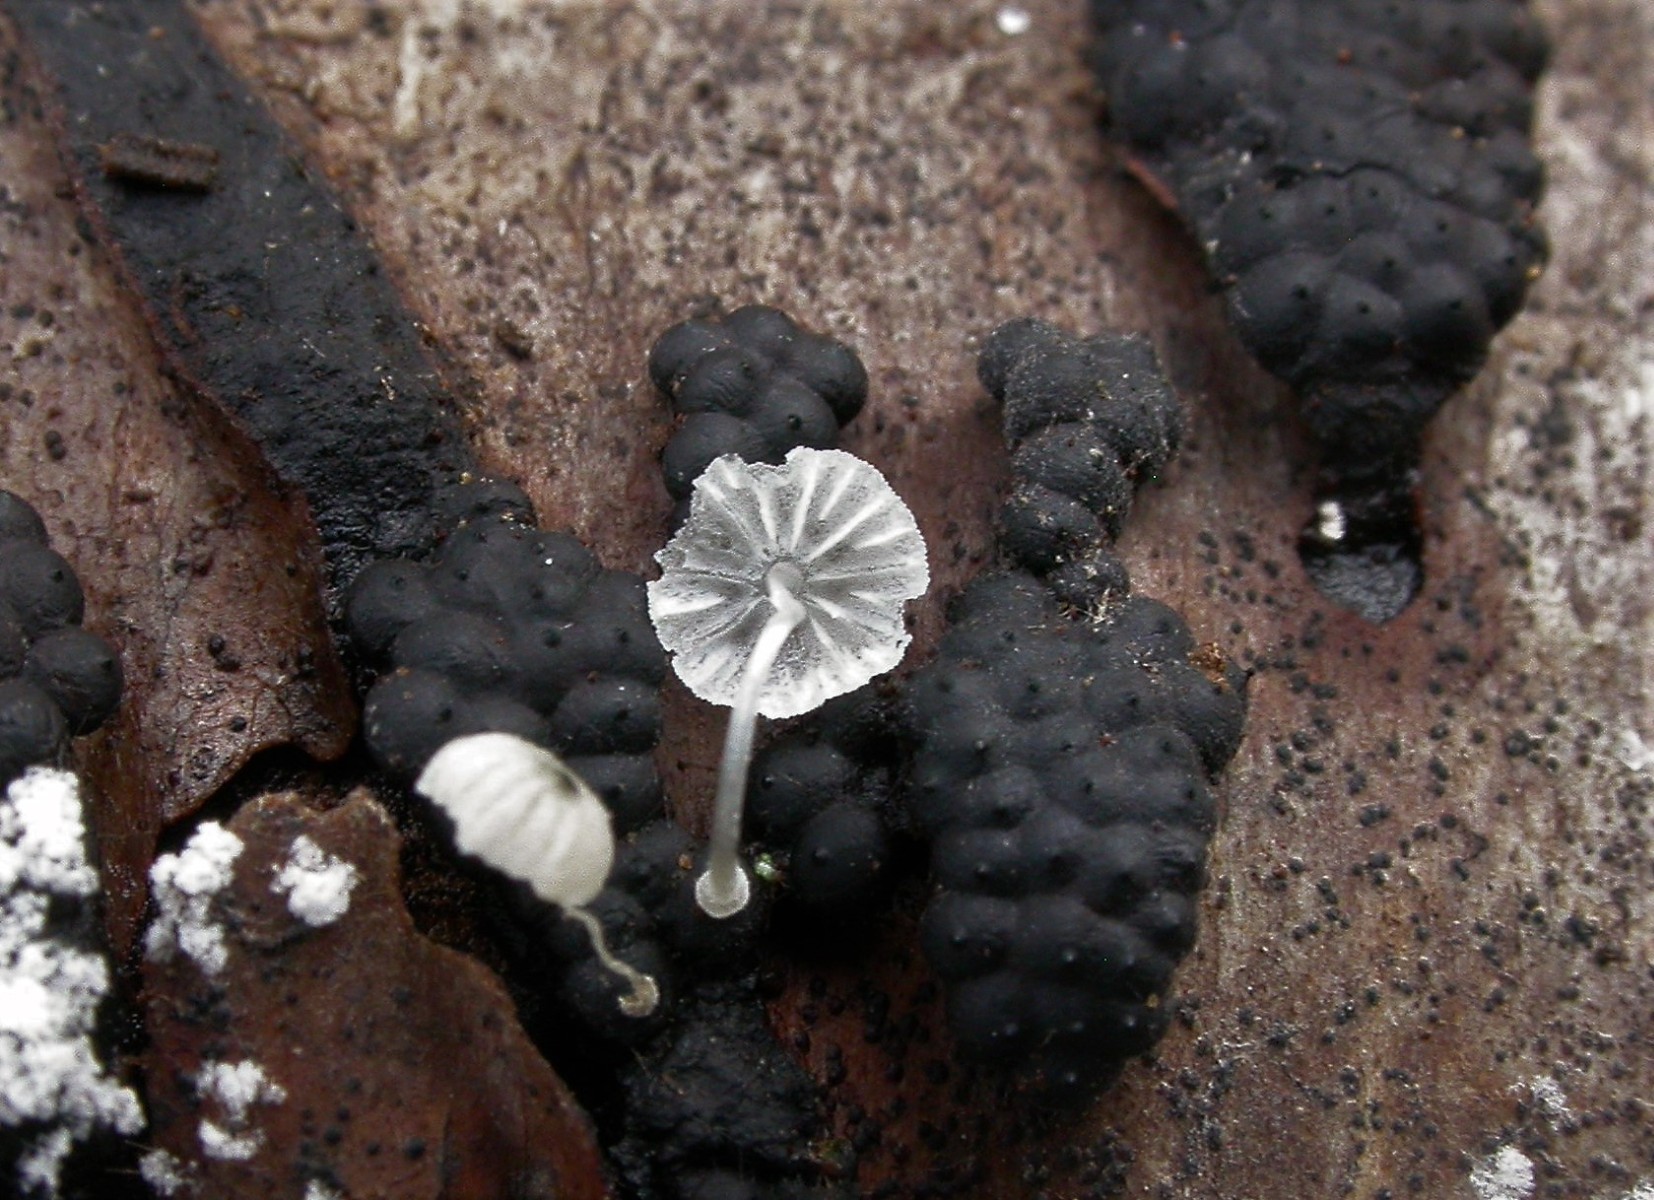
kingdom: Fungi
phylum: Basidiomycota
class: Agaricomycetes
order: Agaricales
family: Mycenaceae
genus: Mycena
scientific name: Mycena clavularis
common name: dunskivet huesvamp
